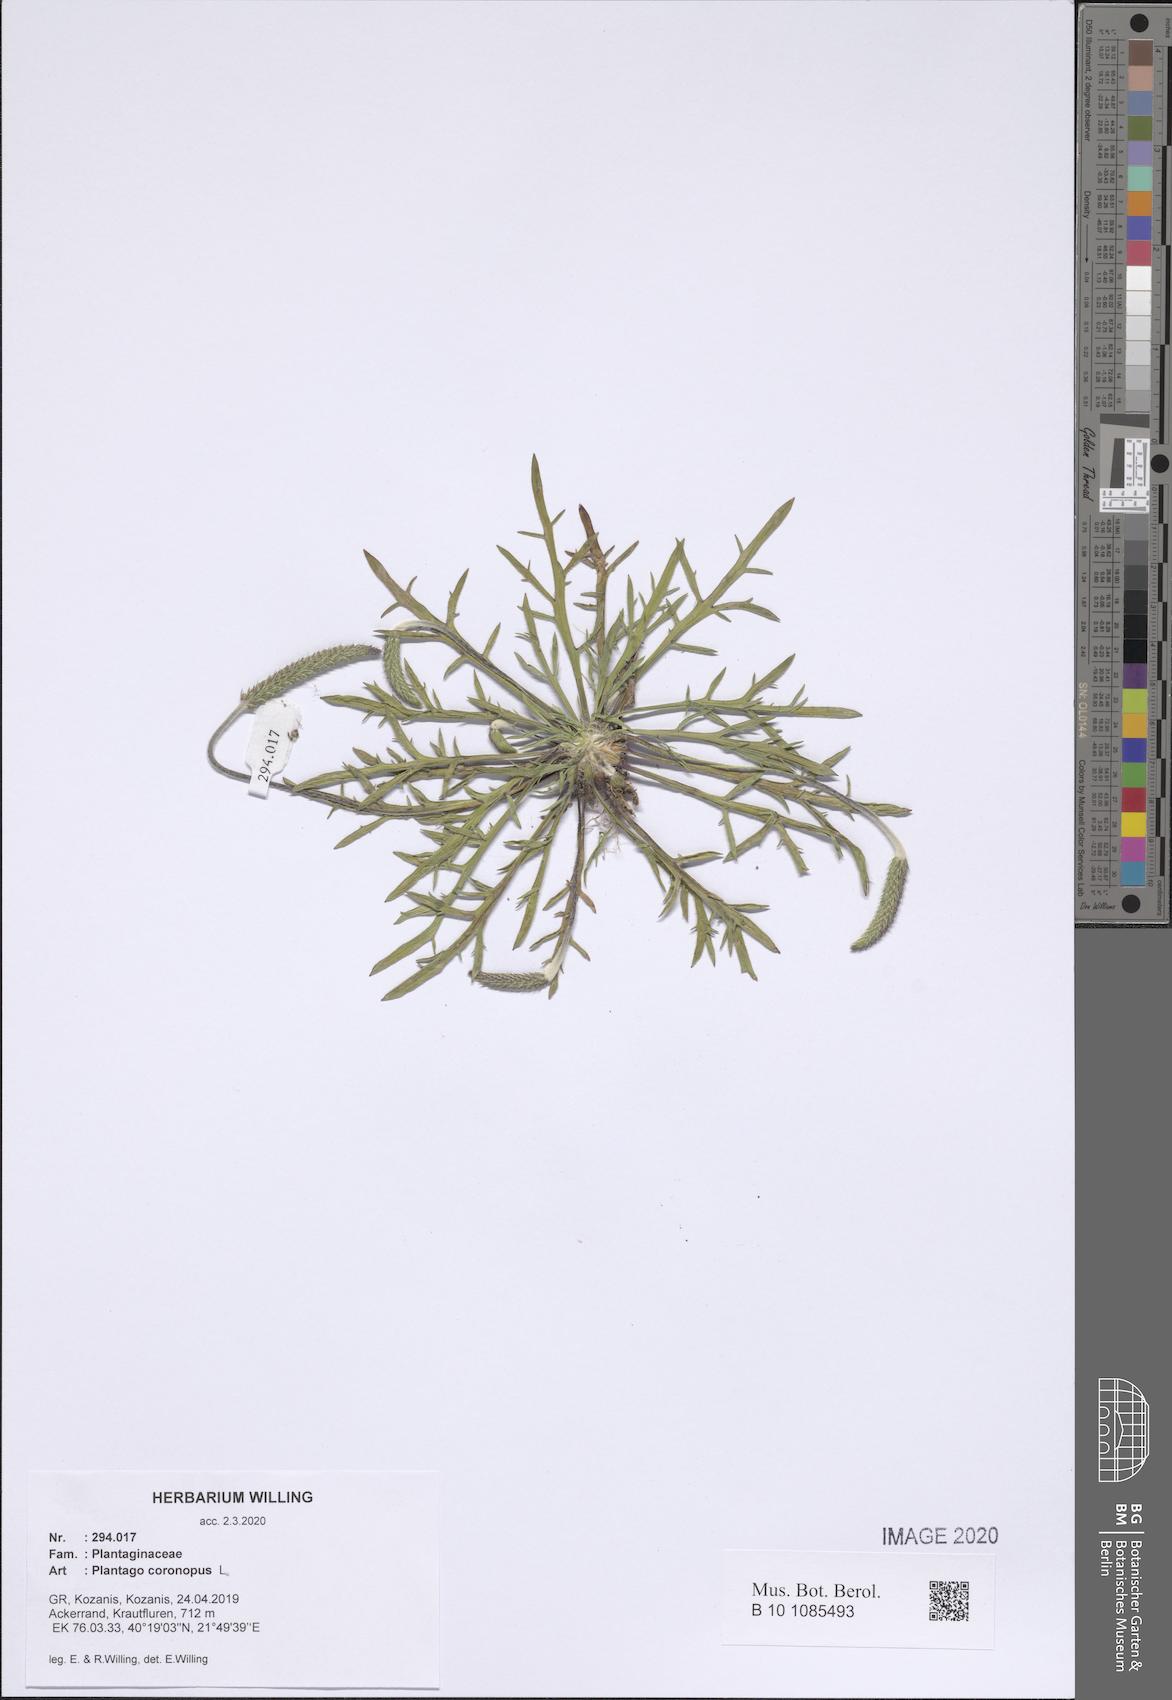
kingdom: Plantae
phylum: Tracheophyta
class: Magnoliopsida
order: Lamiales
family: Plantaginaceae
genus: Plantago
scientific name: Plantago coronopus
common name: Buck's-horn plantain
